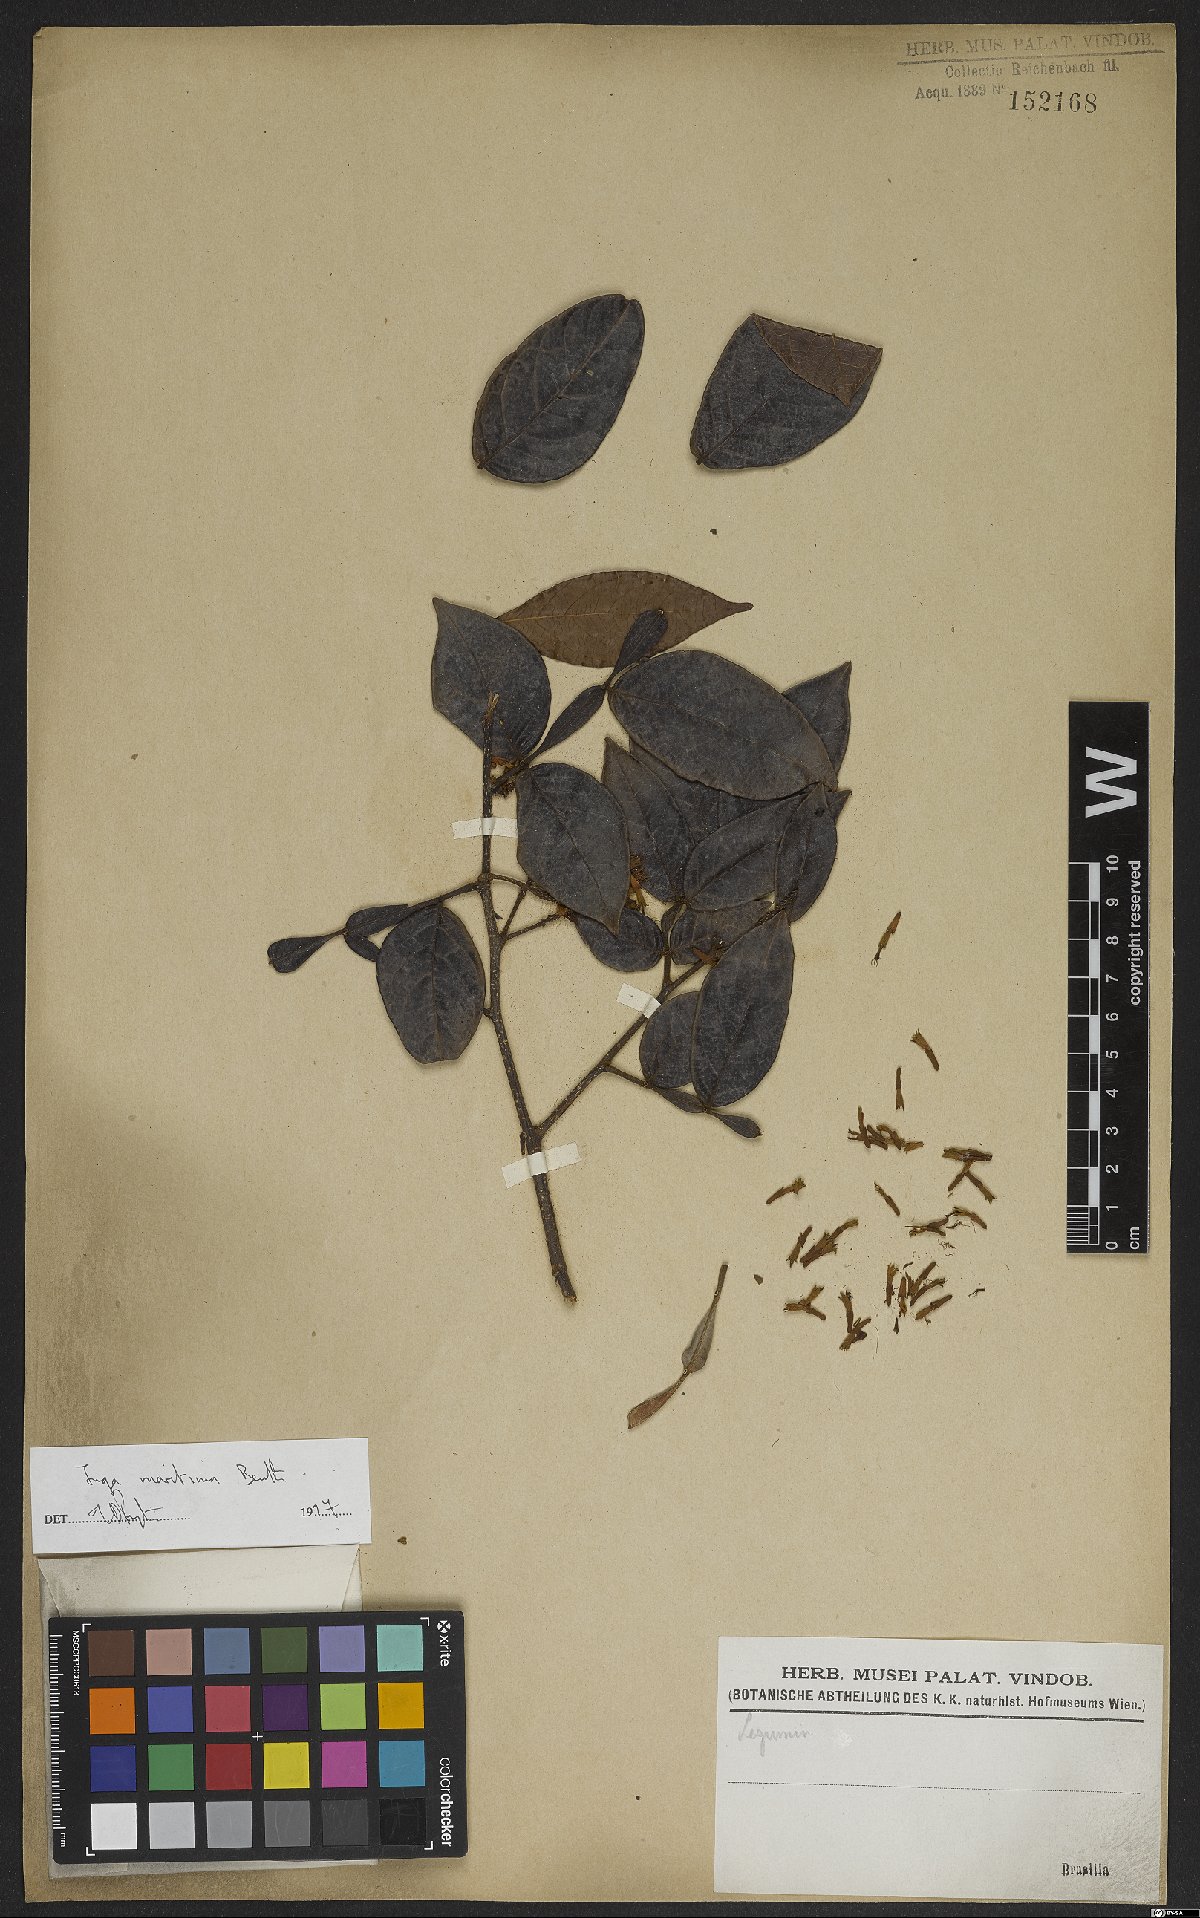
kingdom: Plantae
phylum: Tracheophyta
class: Magnoliopsida
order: Fabales
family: Fabaceae
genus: Inga
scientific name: Inga marginata
